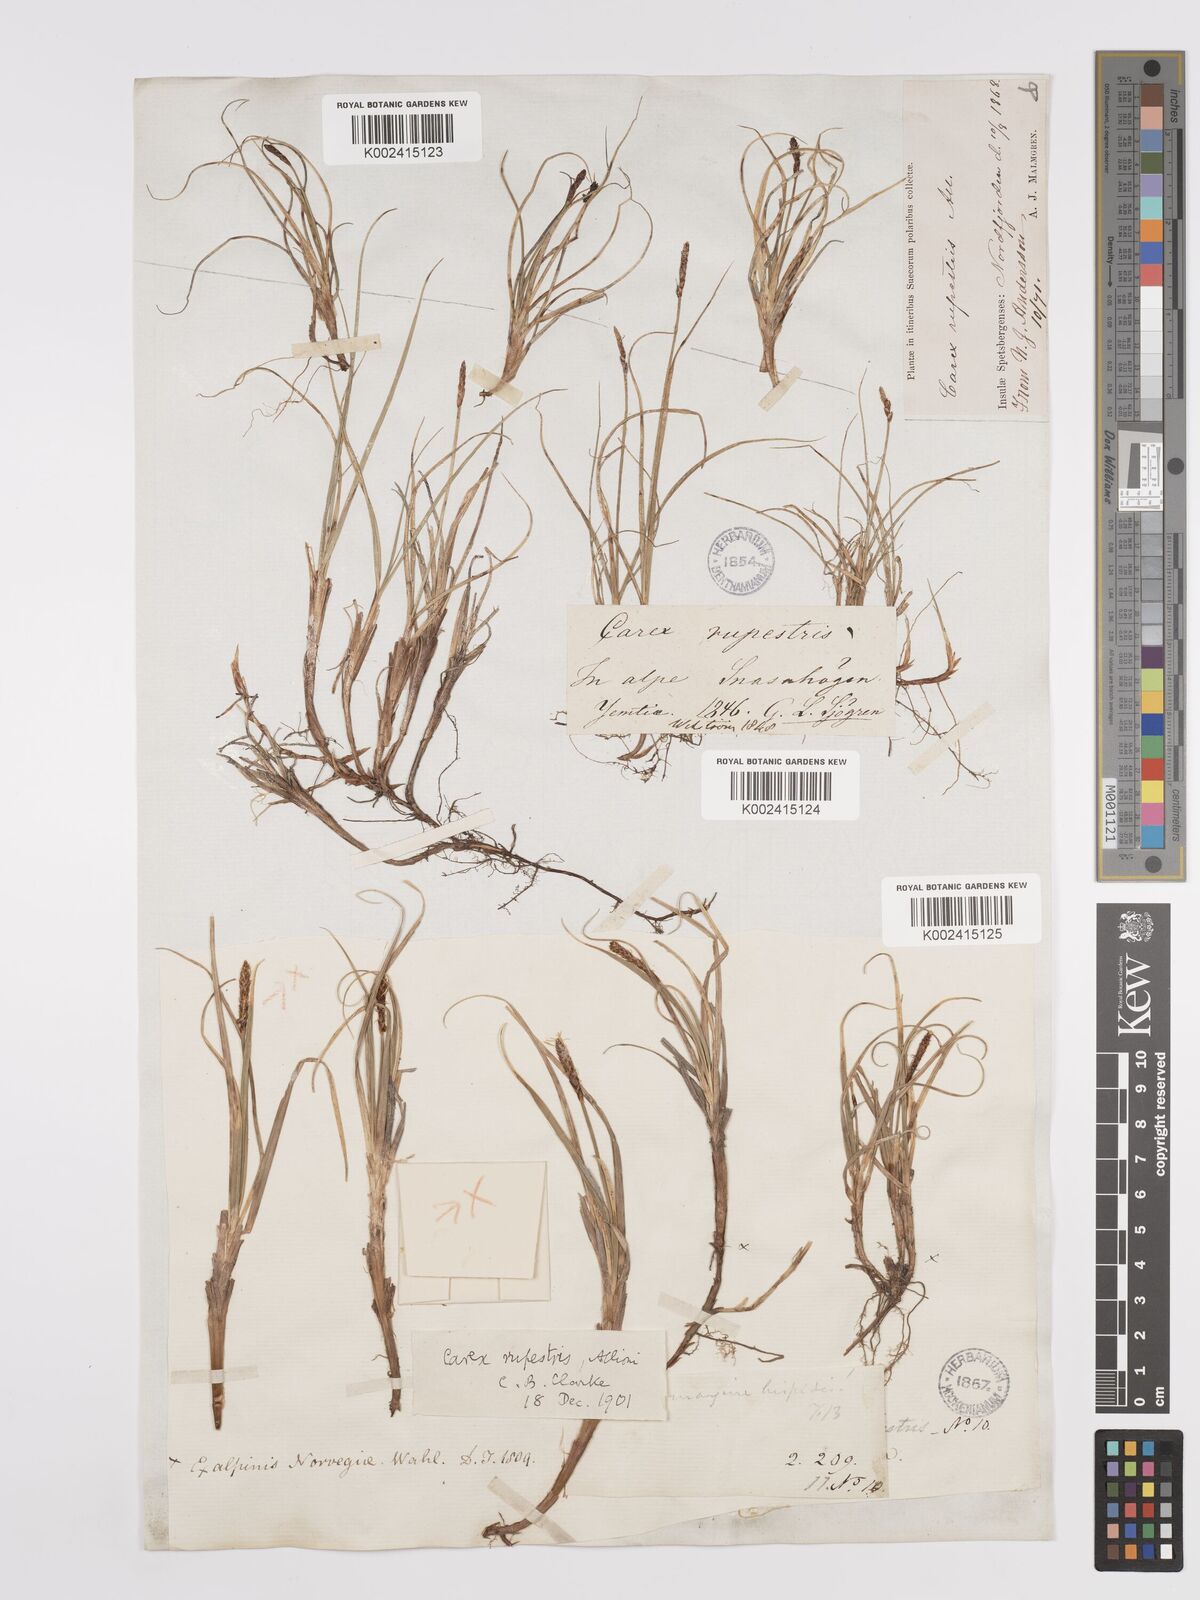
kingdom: Plantae
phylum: Tracheophyta
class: Liliopsida
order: Poales
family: Cyperaceae
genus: Carex
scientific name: Carex rupestris
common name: Rock sedge
